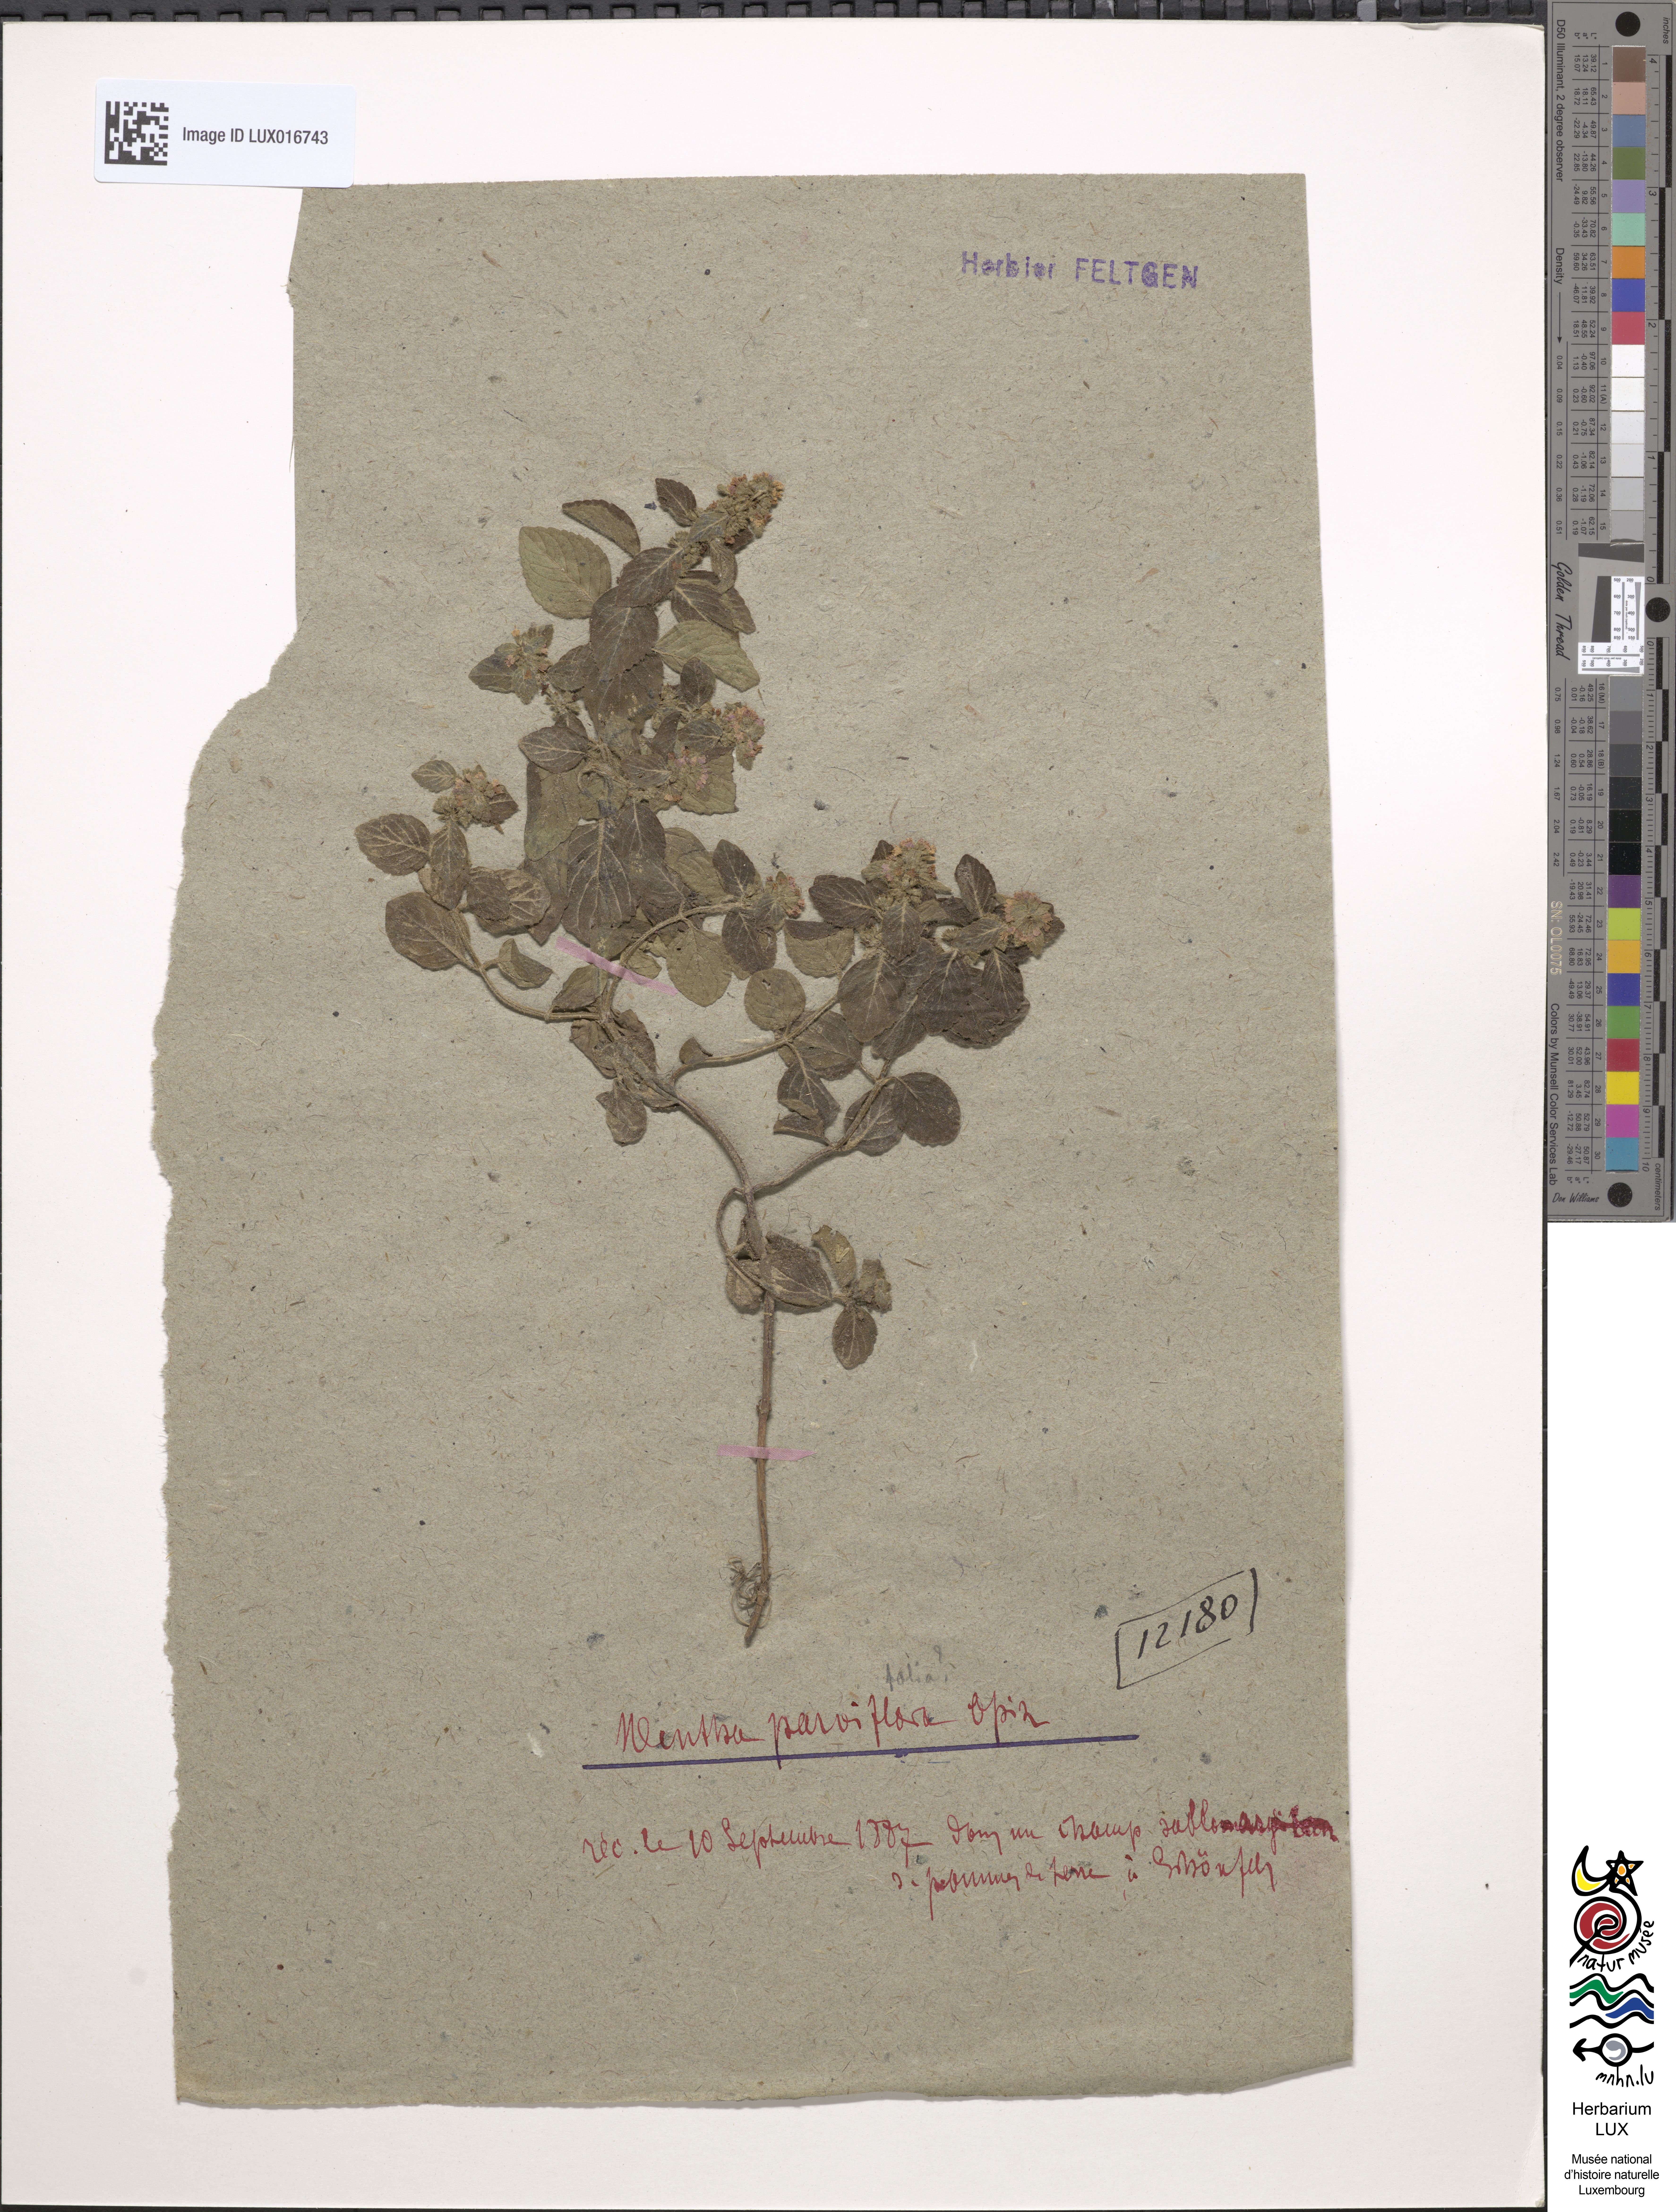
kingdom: Plantae
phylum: Tracheophyta
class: Magnoliopsida
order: Lamiales
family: Lamiaceae
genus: Mentha
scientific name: Mentha arvensis
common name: Corn mint
